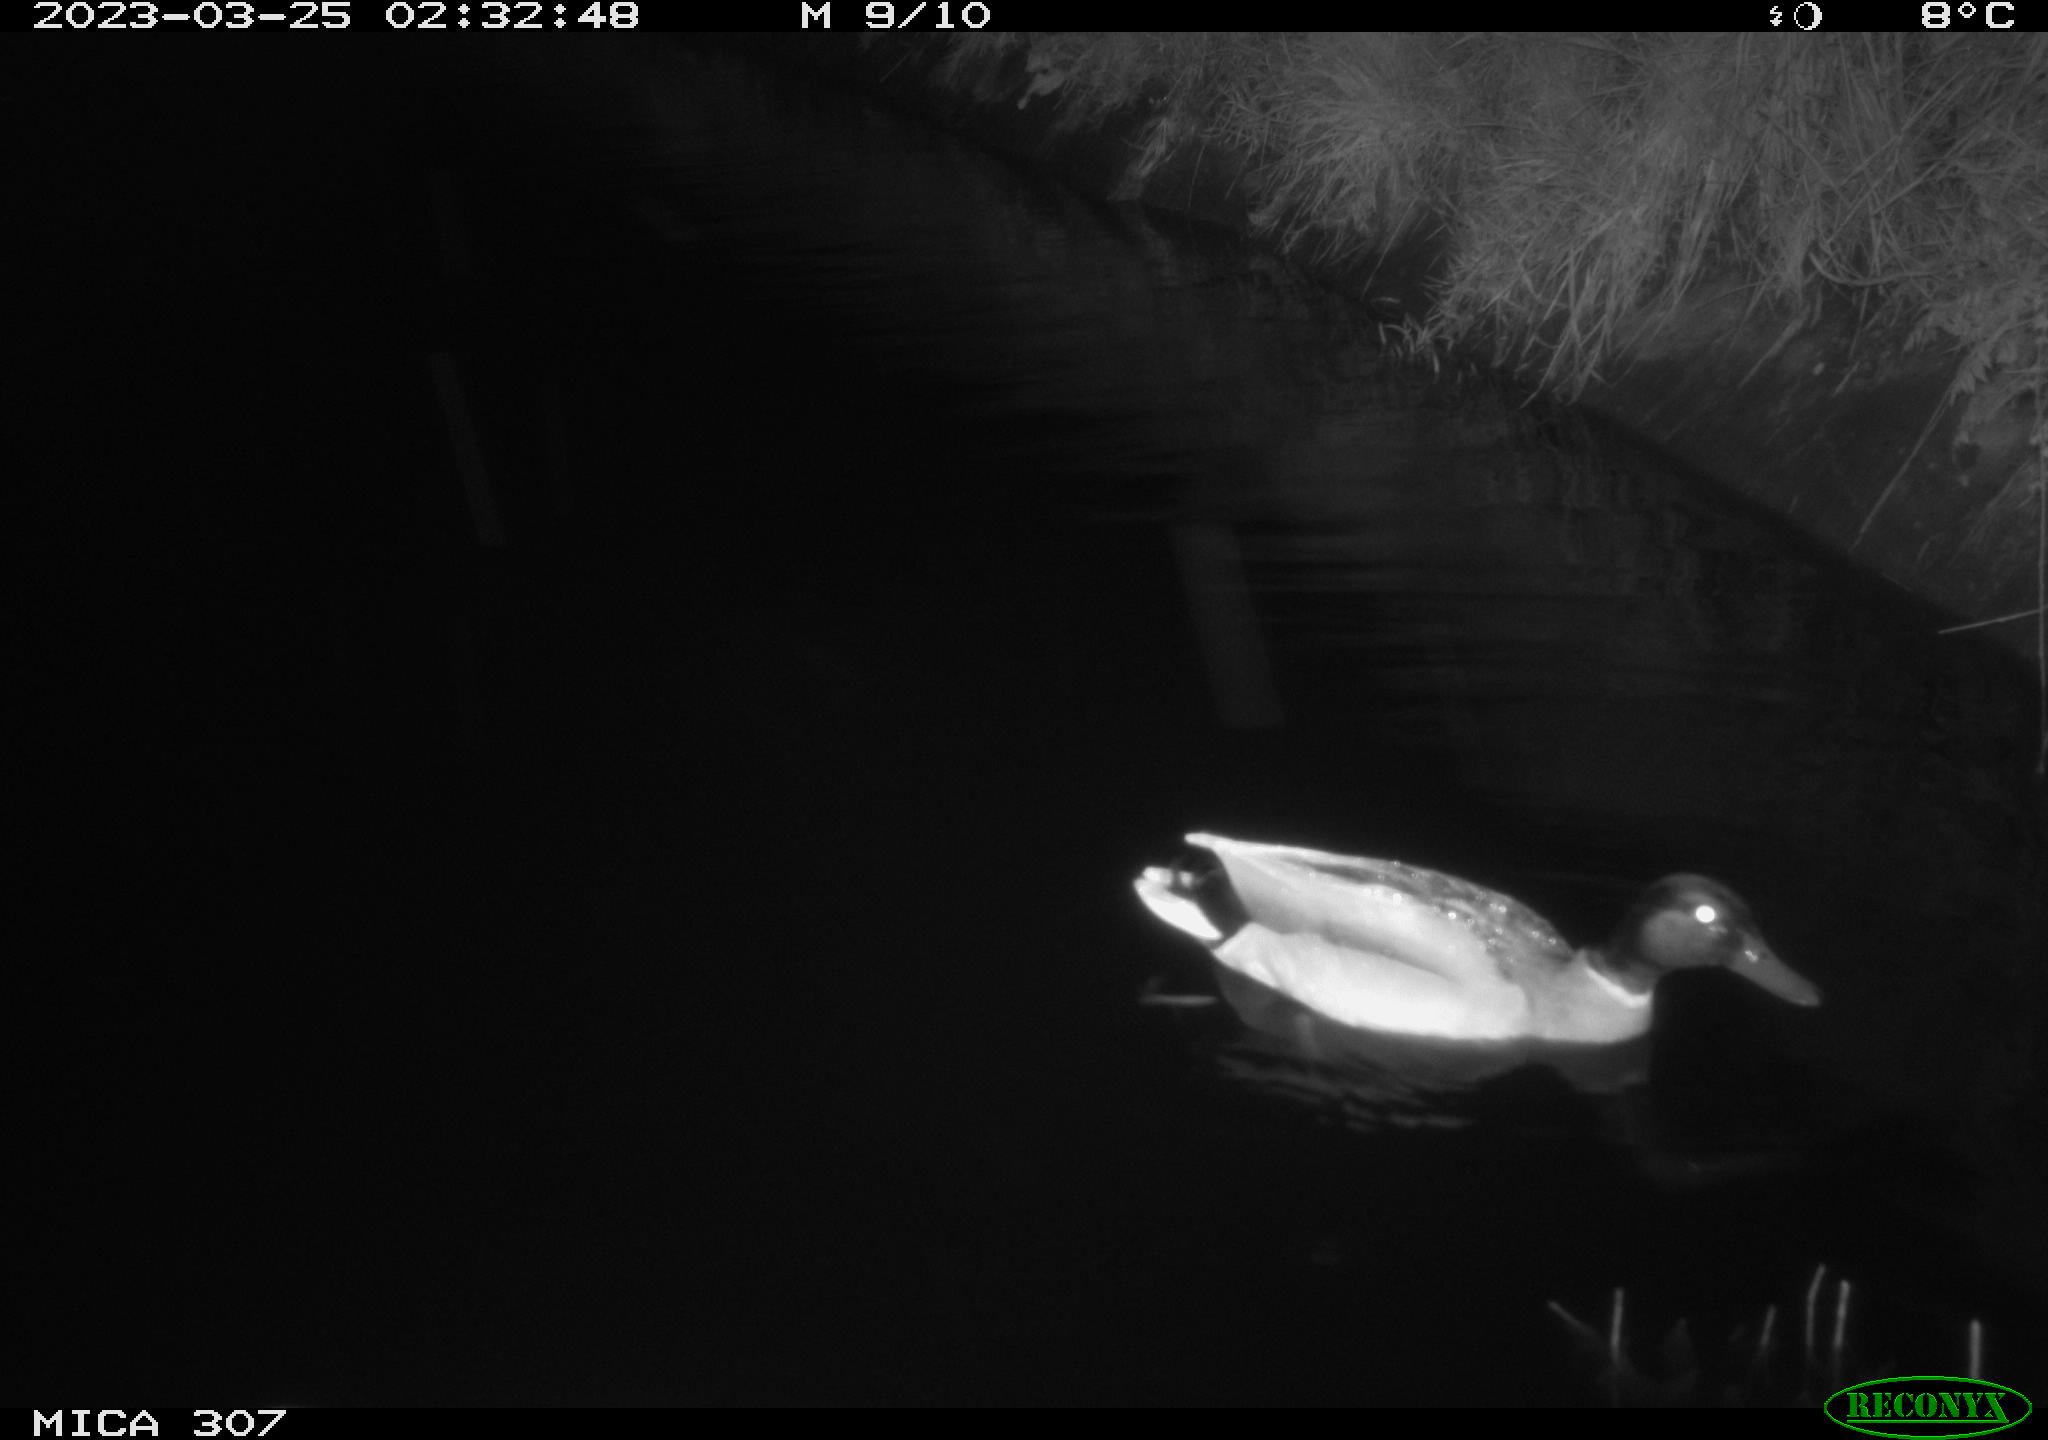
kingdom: Animalia
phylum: Chordata
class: Aves
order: Anseriformes
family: Anatidae
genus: Anas
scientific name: Anas
